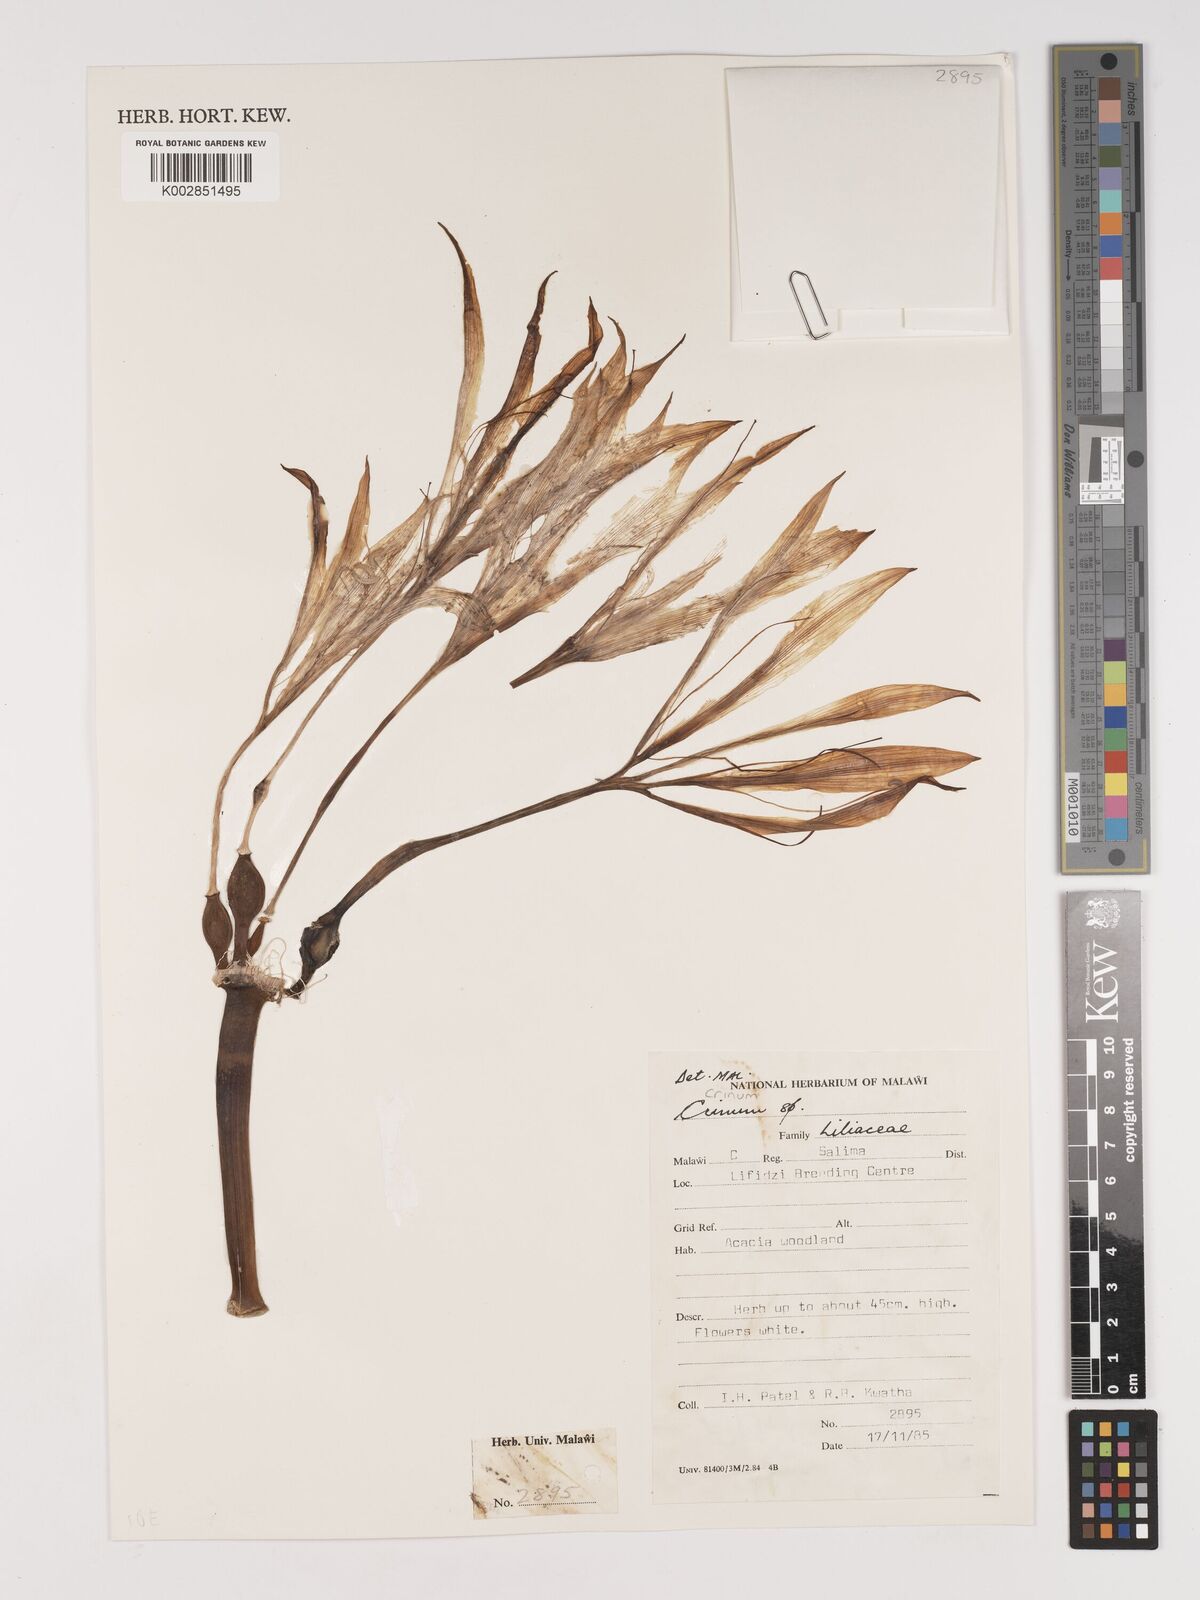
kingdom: Plantae
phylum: Tracheophyta
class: Liliopsida
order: Asparagales
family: Amaryllidaceae
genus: Crinum
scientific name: Crinum stuhlmannii
